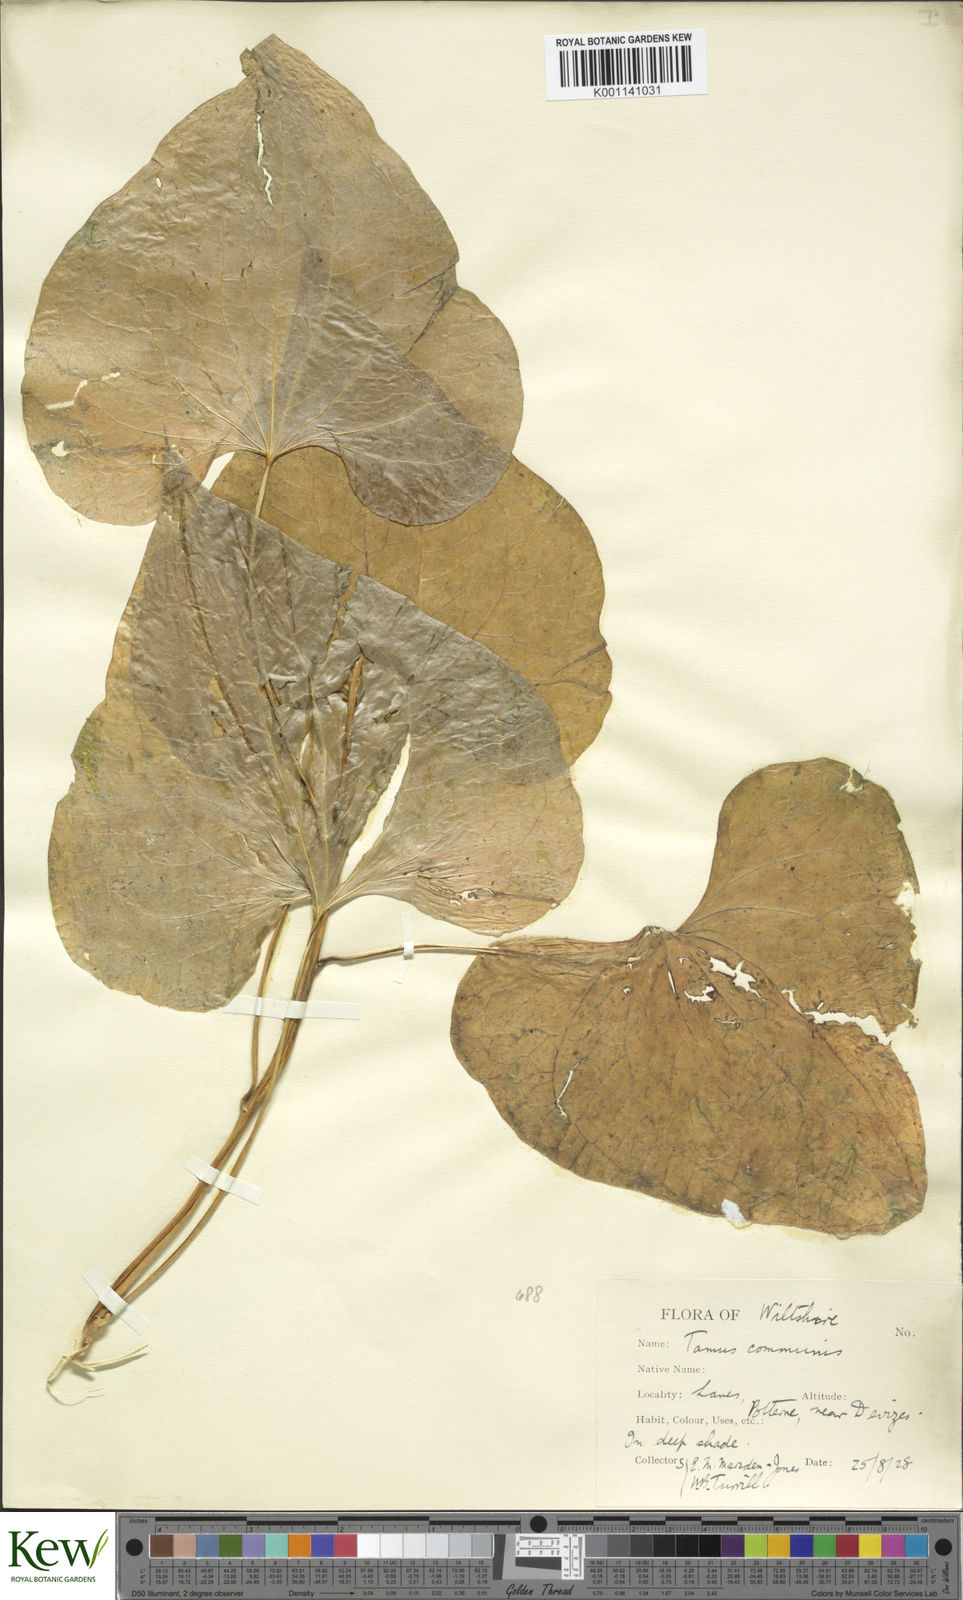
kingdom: Plantae
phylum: Tracheophyta
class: Liliopsida
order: Dioscoreales
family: Dioscoreaceae
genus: Dioscorea
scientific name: Dioscorea communis
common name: Black-bindweed
